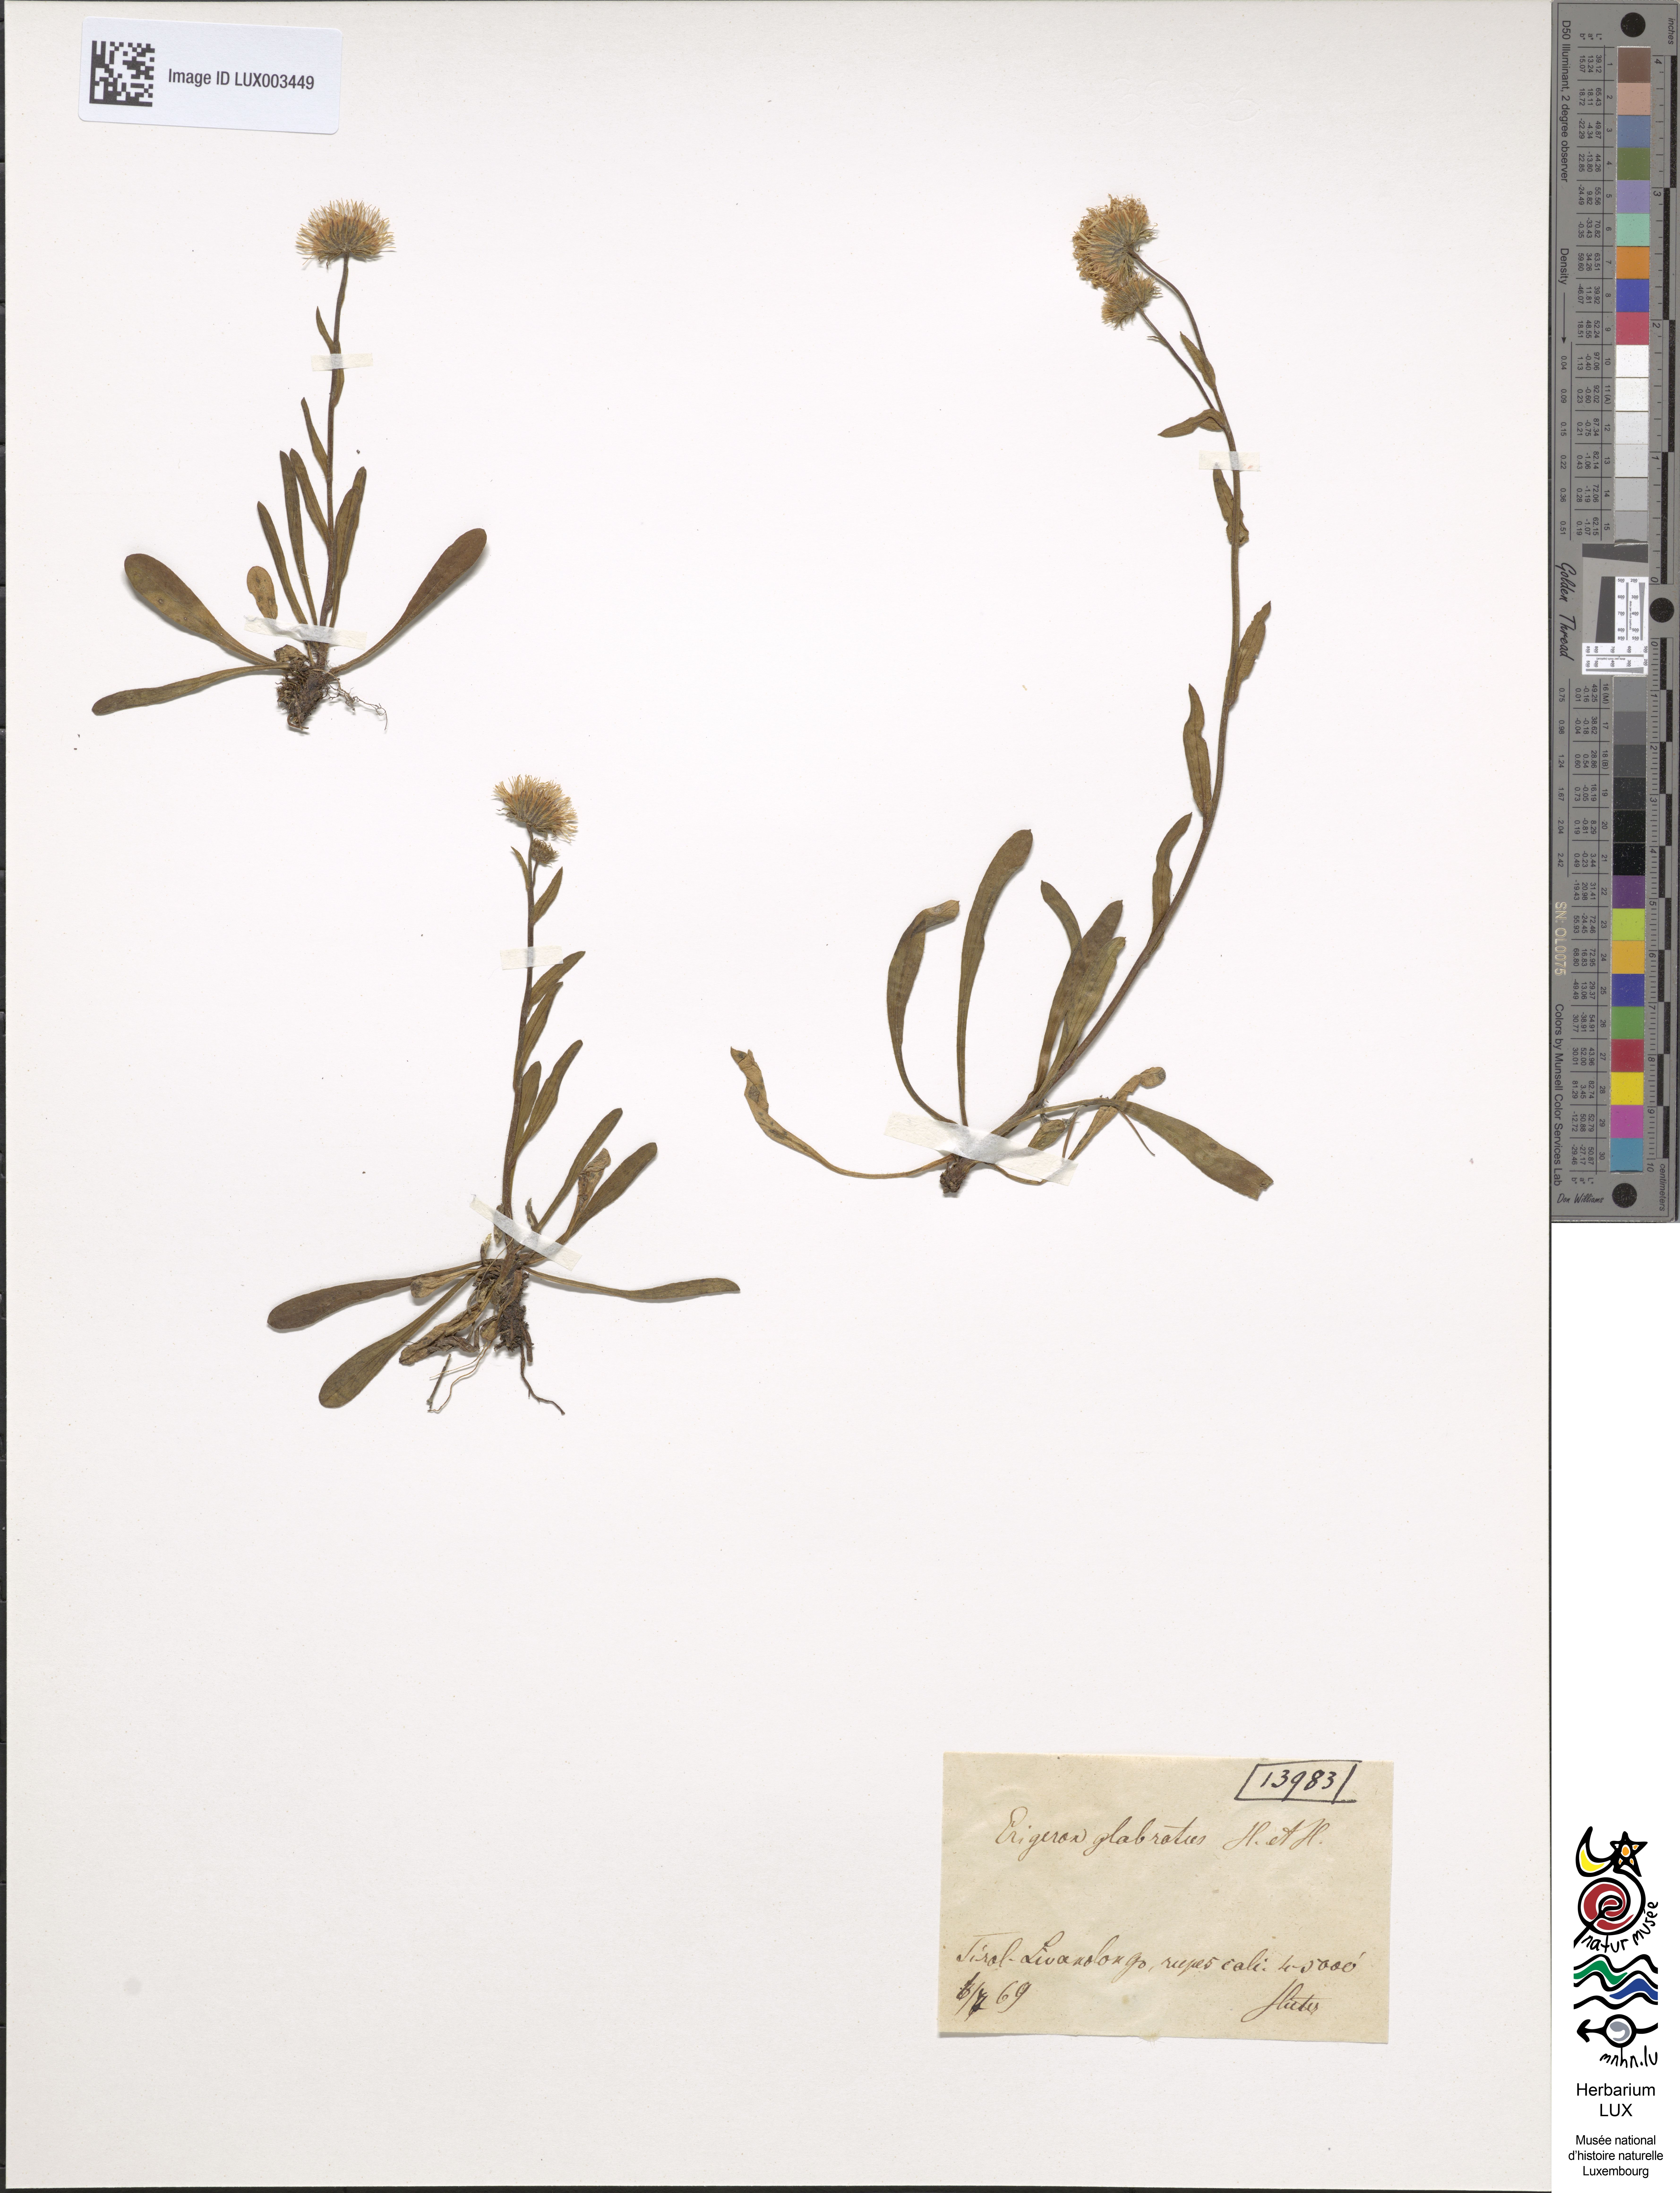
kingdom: Plantae
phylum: Tracheophyta
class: Magnoliopsida
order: Asterales
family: Asteraceae
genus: Erigeron
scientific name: Erigeron glabratus
